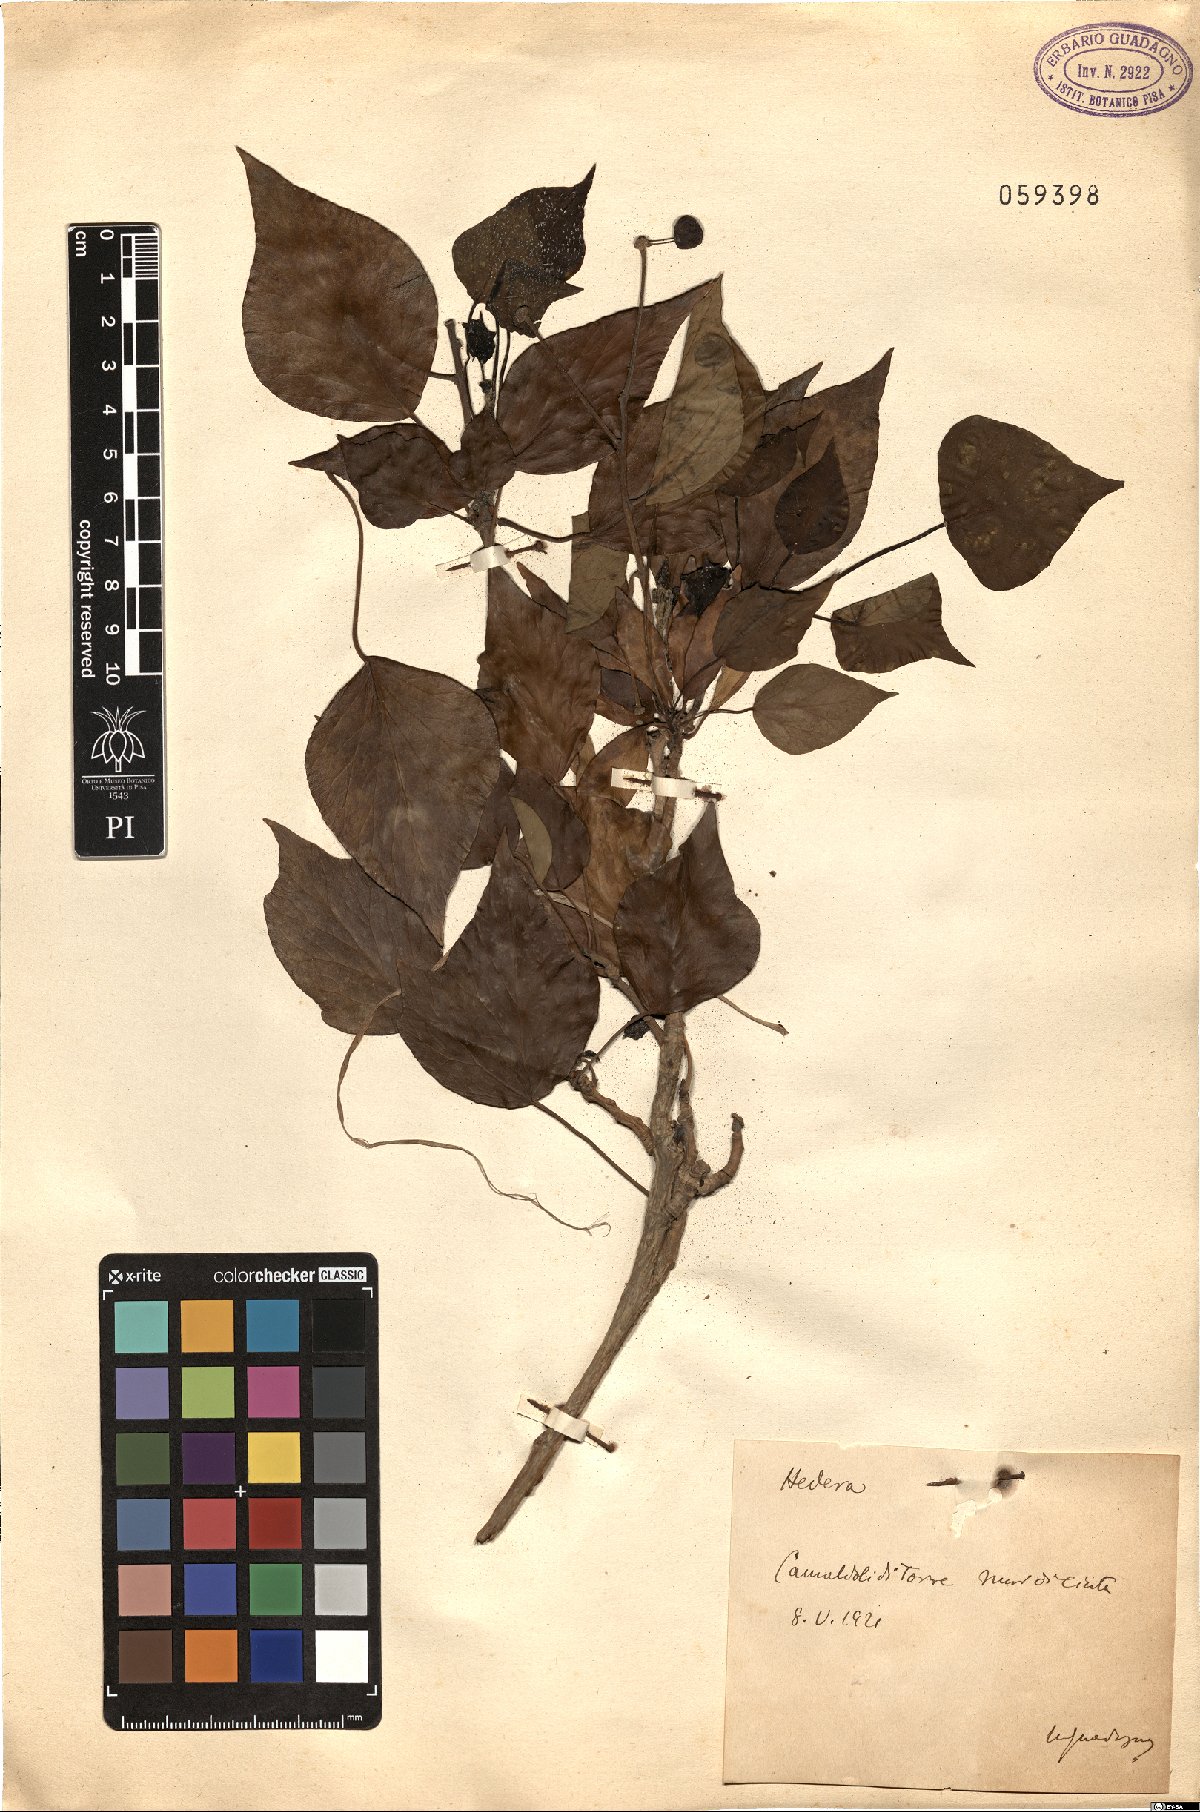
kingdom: Plantae
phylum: Tracheophyta
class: Magnoliopsida
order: Apiales
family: Araliaceae
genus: Hedera
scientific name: Hedera
